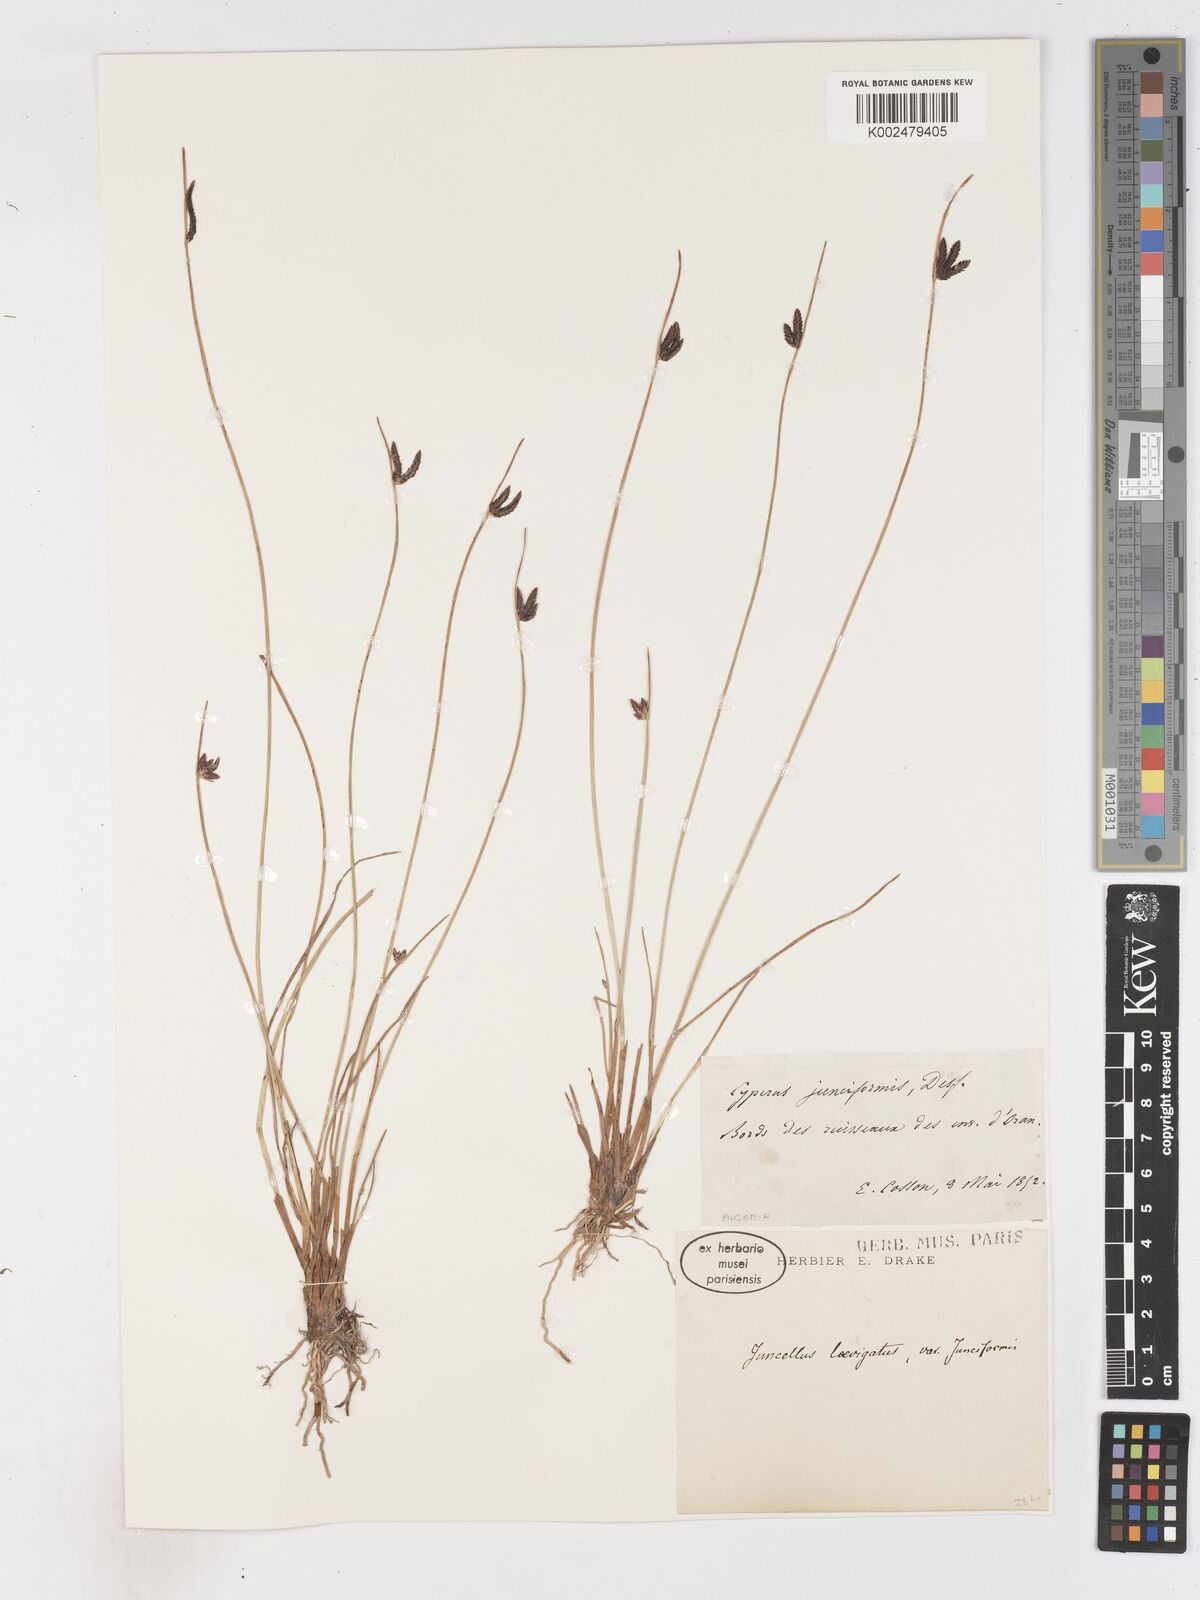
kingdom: Plantae
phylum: Tracheophyta
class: Liliopsida
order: Poales
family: Cyperaceae
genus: Cyperus
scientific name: Cyperus laevigatus
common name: Smooth flat sedge
